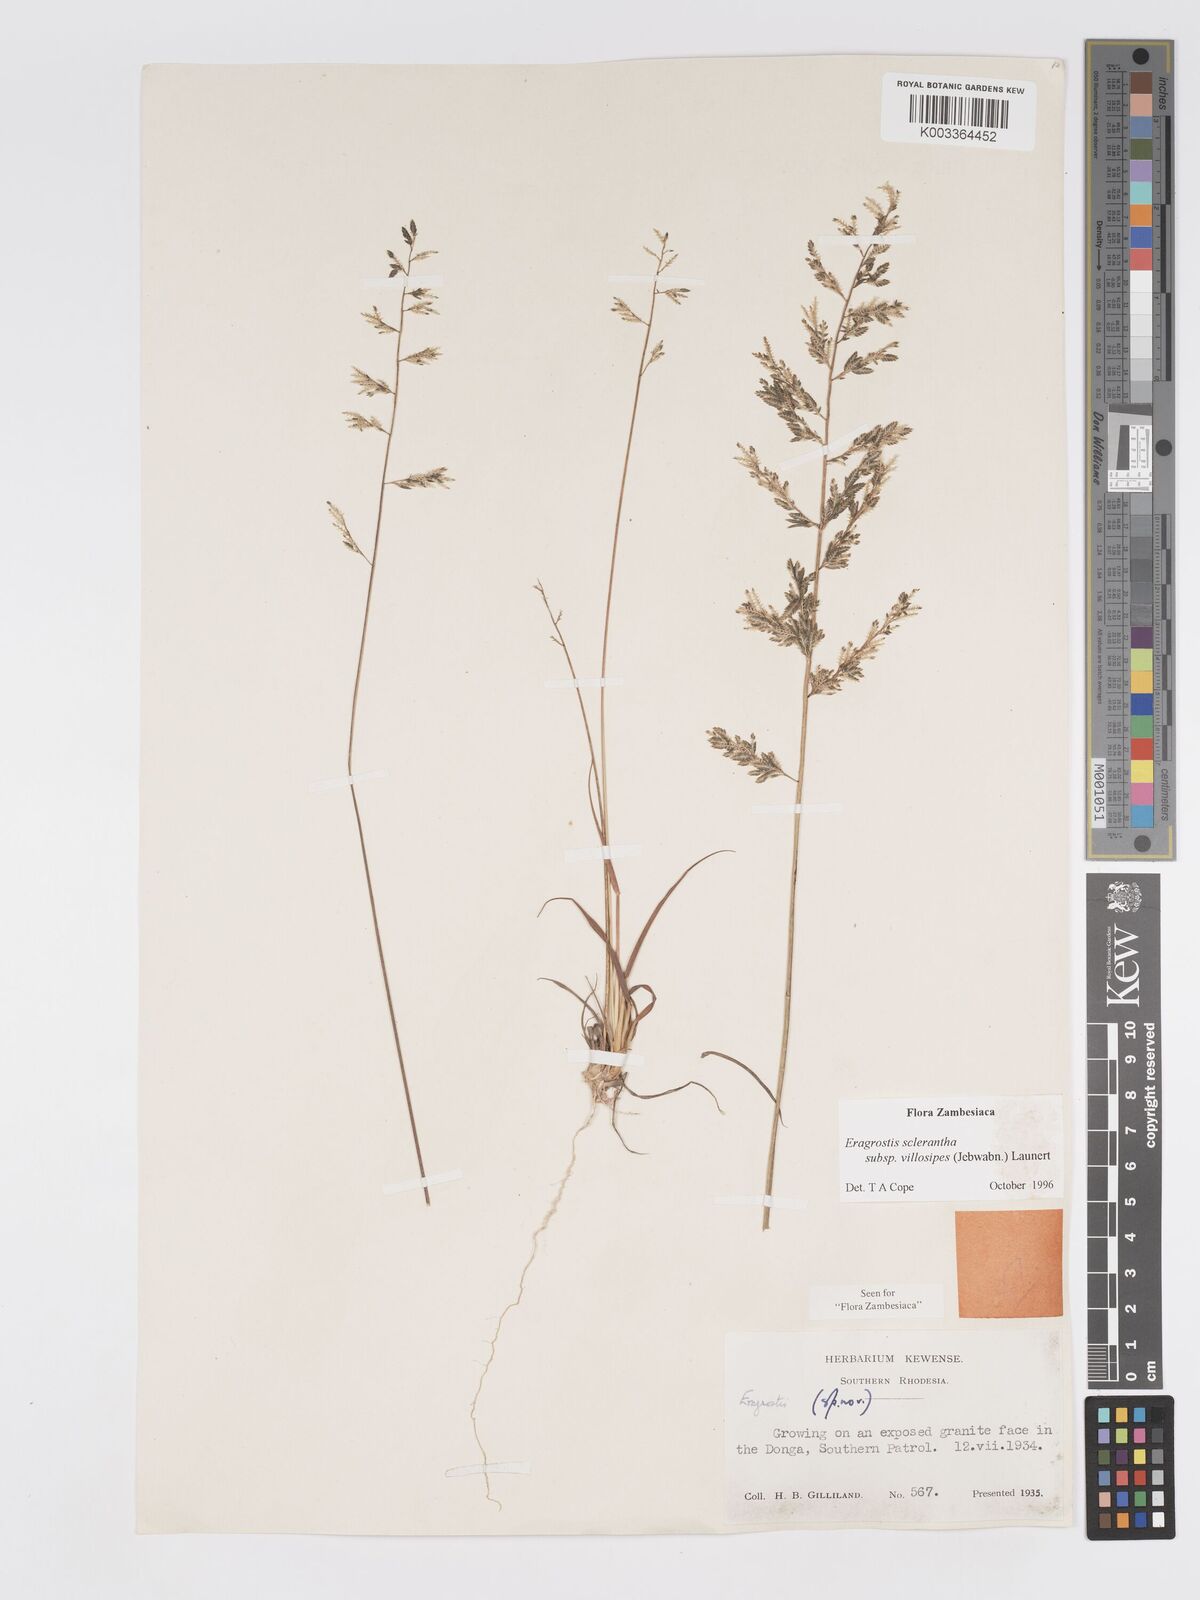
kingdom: Plantae
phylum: Tracheophyta
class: Liliopsida
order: Poales
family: Poaceae
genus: Eragrostis
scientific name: Eragrostis sclerantha
